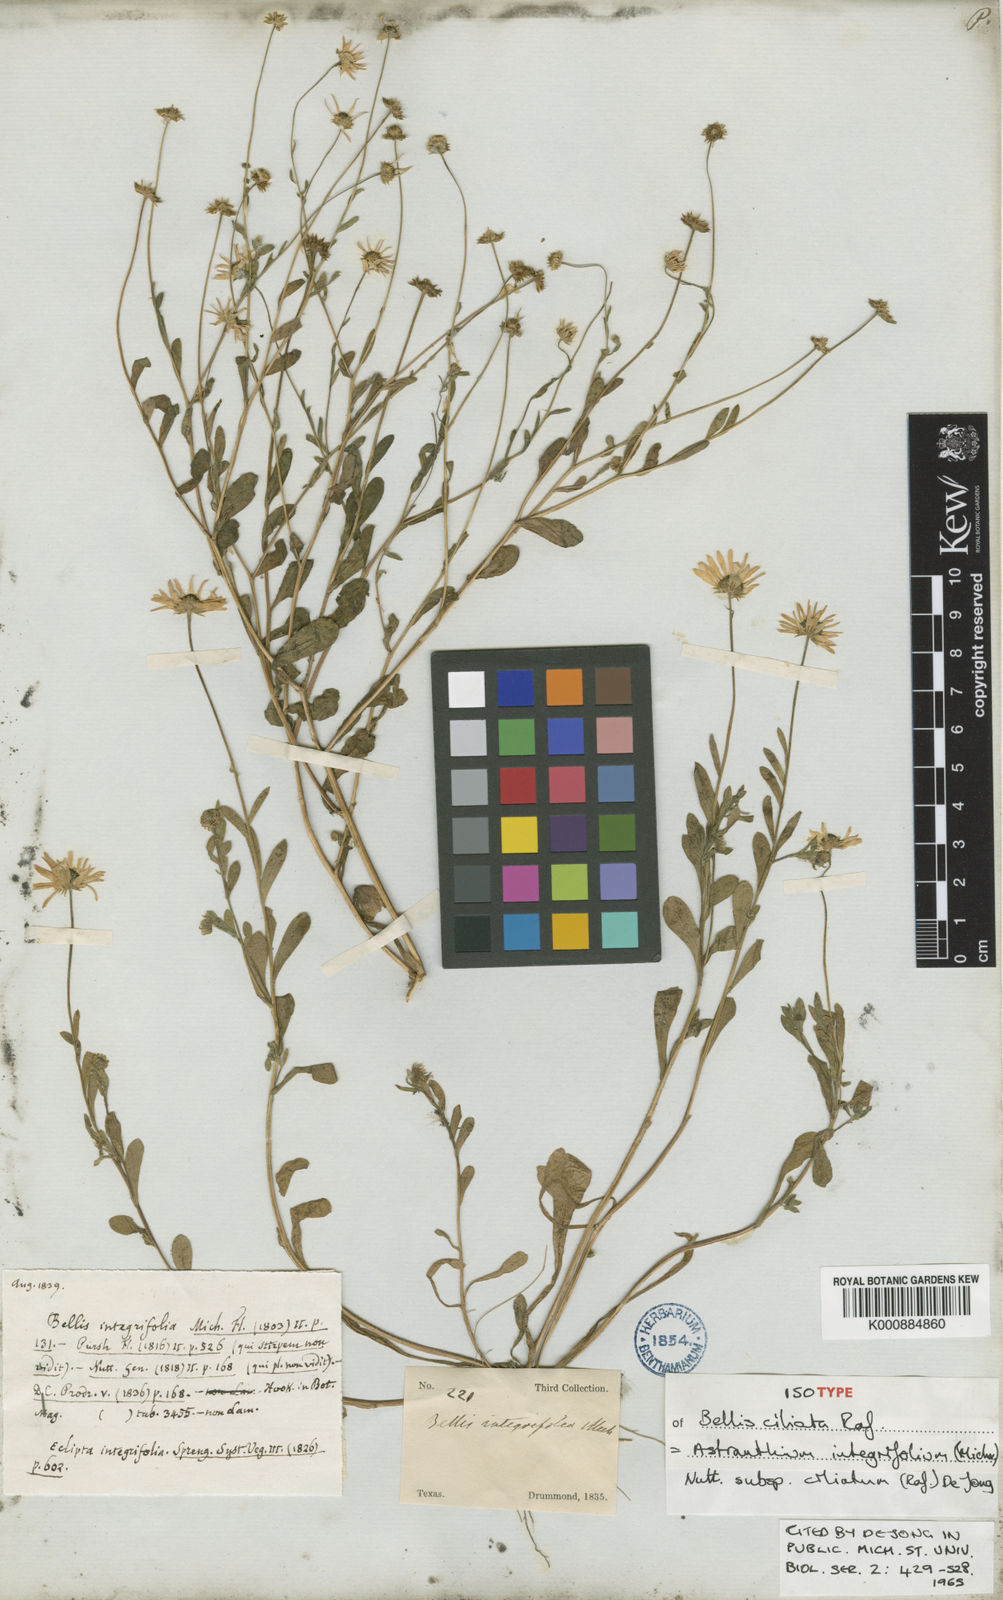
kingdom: Plantae
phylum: Tracheophyta
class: Magnoliopsida
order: Asterales
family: Asteraceae
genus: Astranthium
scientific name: Astranthium ciliatum
